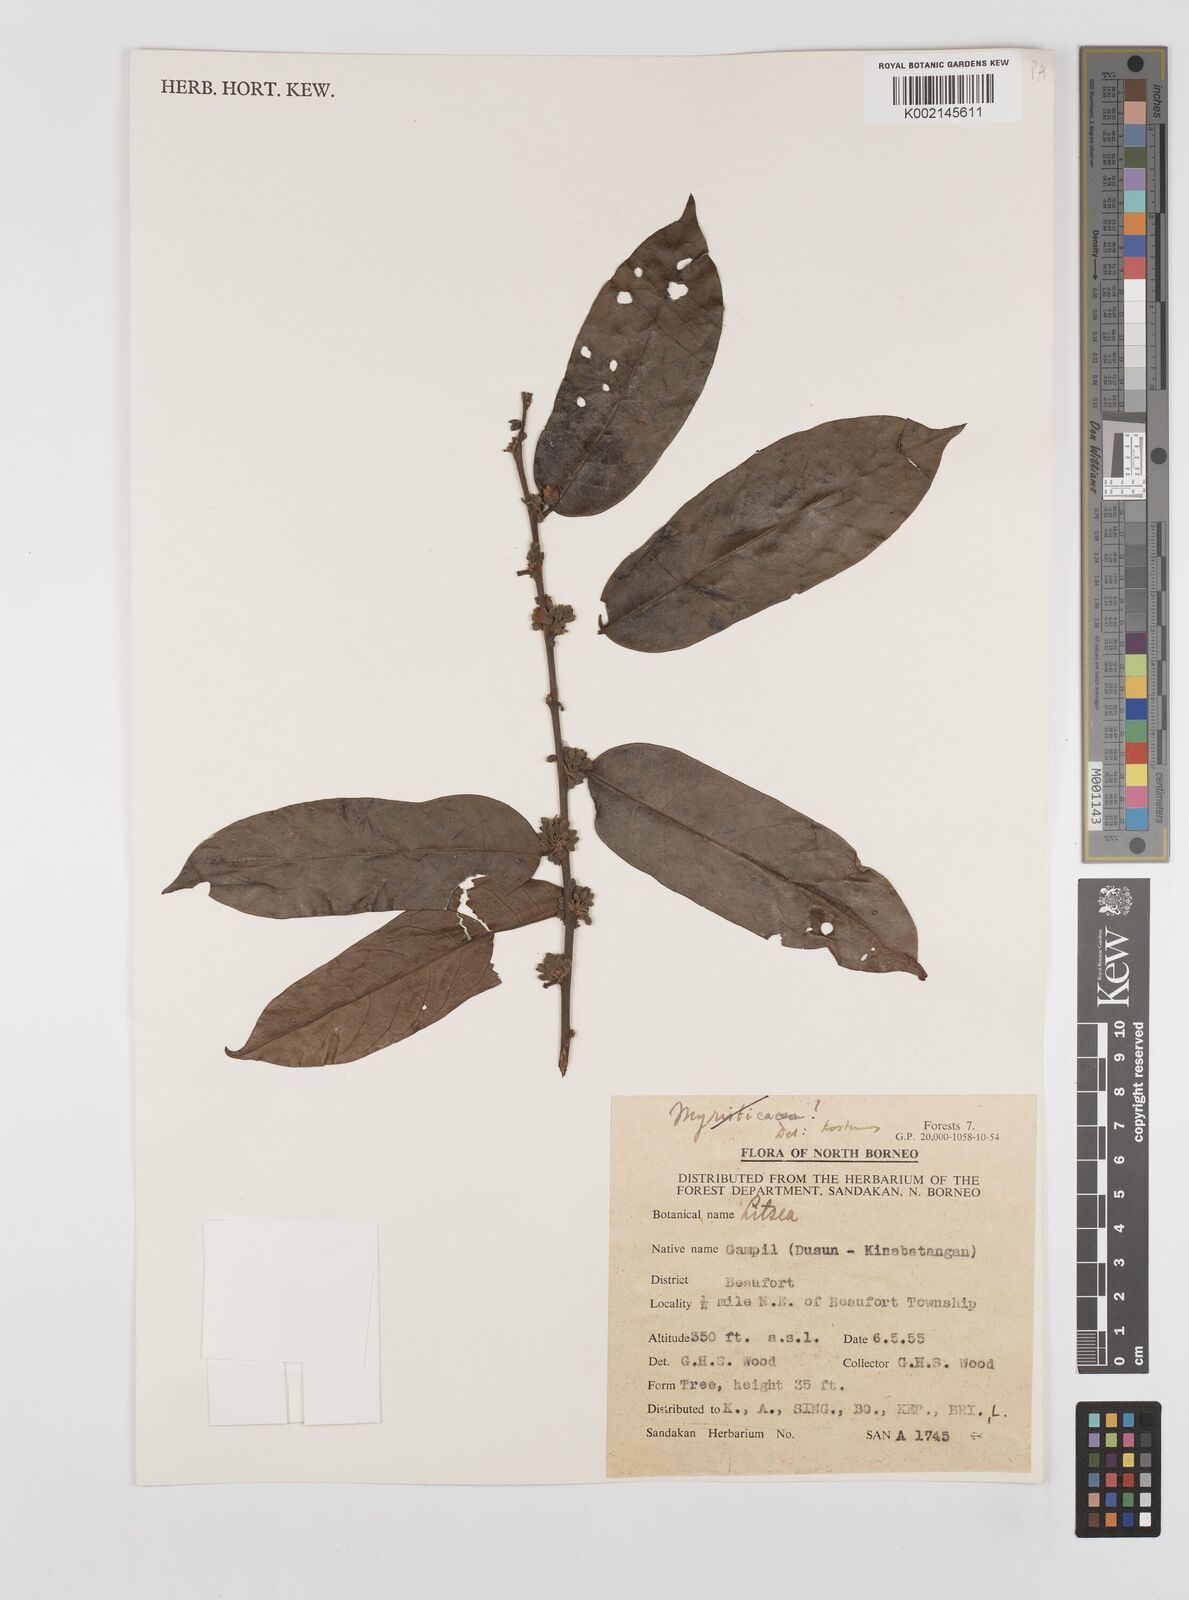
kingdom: Plantae
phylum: Tracheophyta
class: Magnoliopsida
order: Laurales
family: Lauraceae
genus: Litsea
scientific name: Litsea
